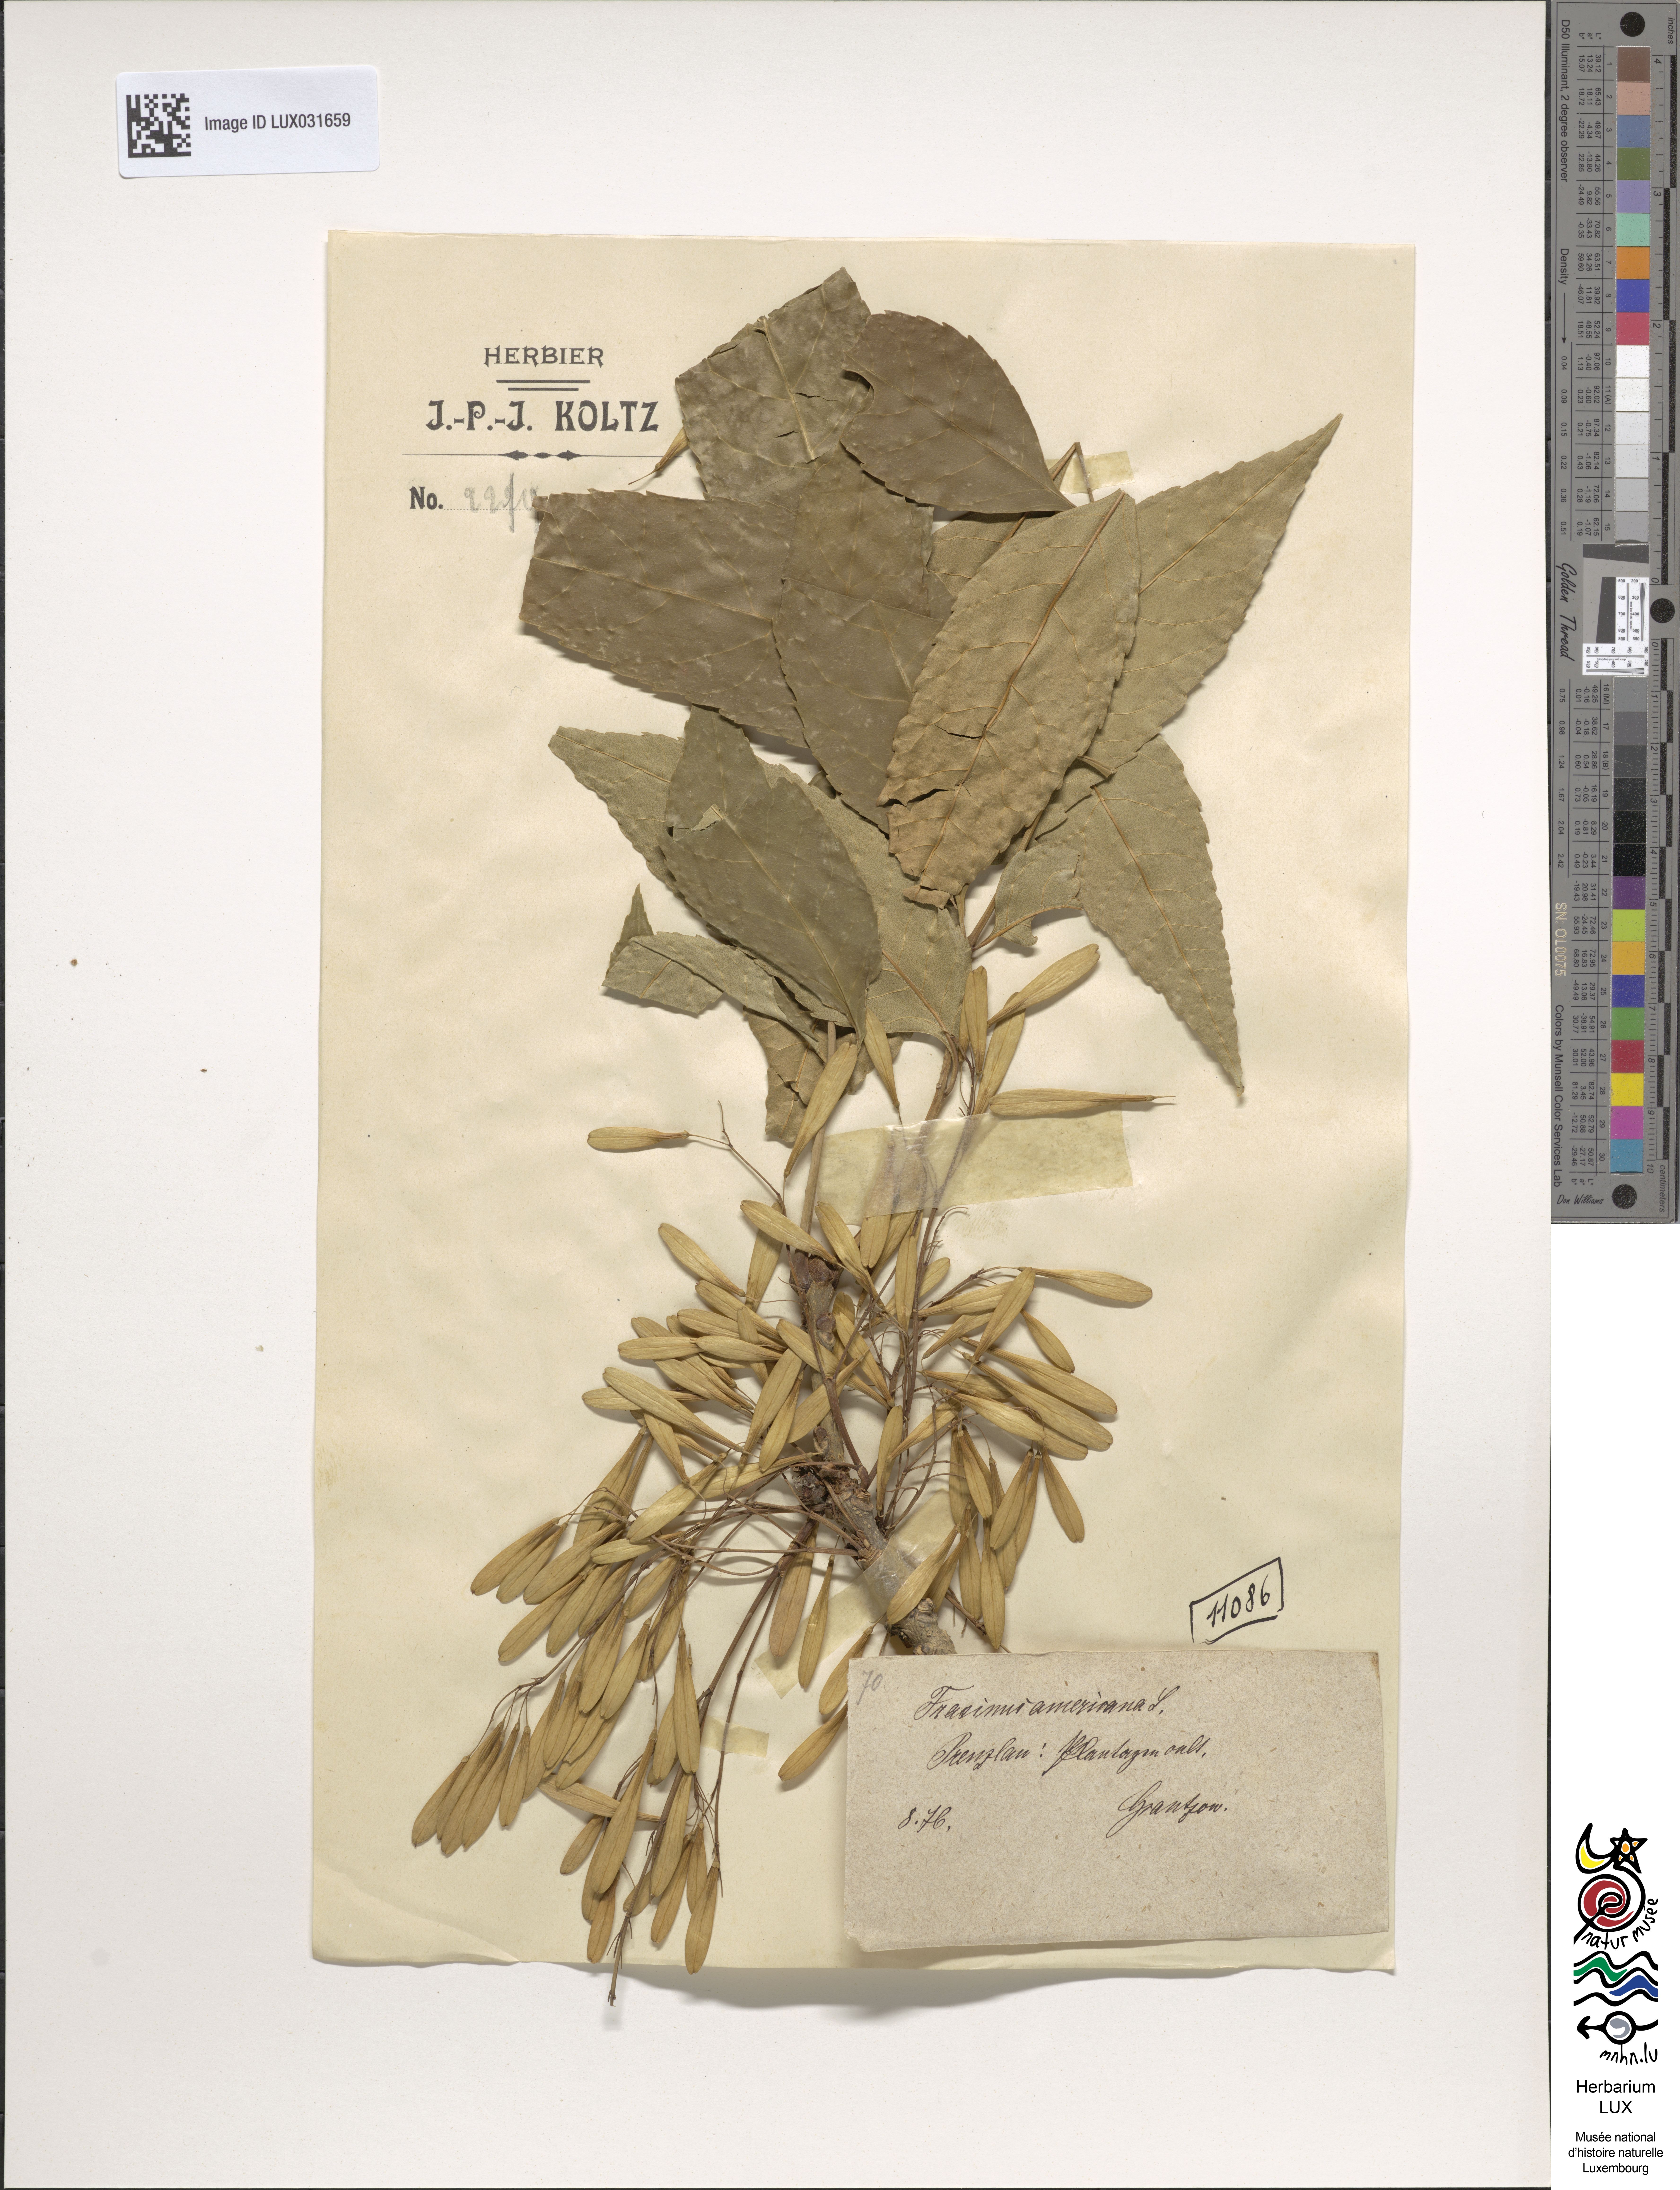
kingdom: Plantae
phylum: Tracheophyta
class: Magnoliopsida
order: Lamiales
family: Oleaceae
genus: Fraxinus
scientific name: Fraxinus americana
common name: White ash
